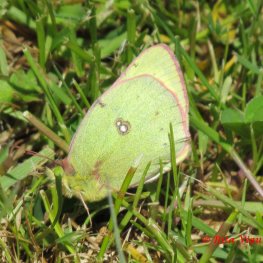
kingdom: Animalia
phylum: Arthropoda
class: Insecta
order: Lepidoptera
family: Pieridae
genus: Colias
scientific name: Colias philodice
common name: Clouded Sulphur
